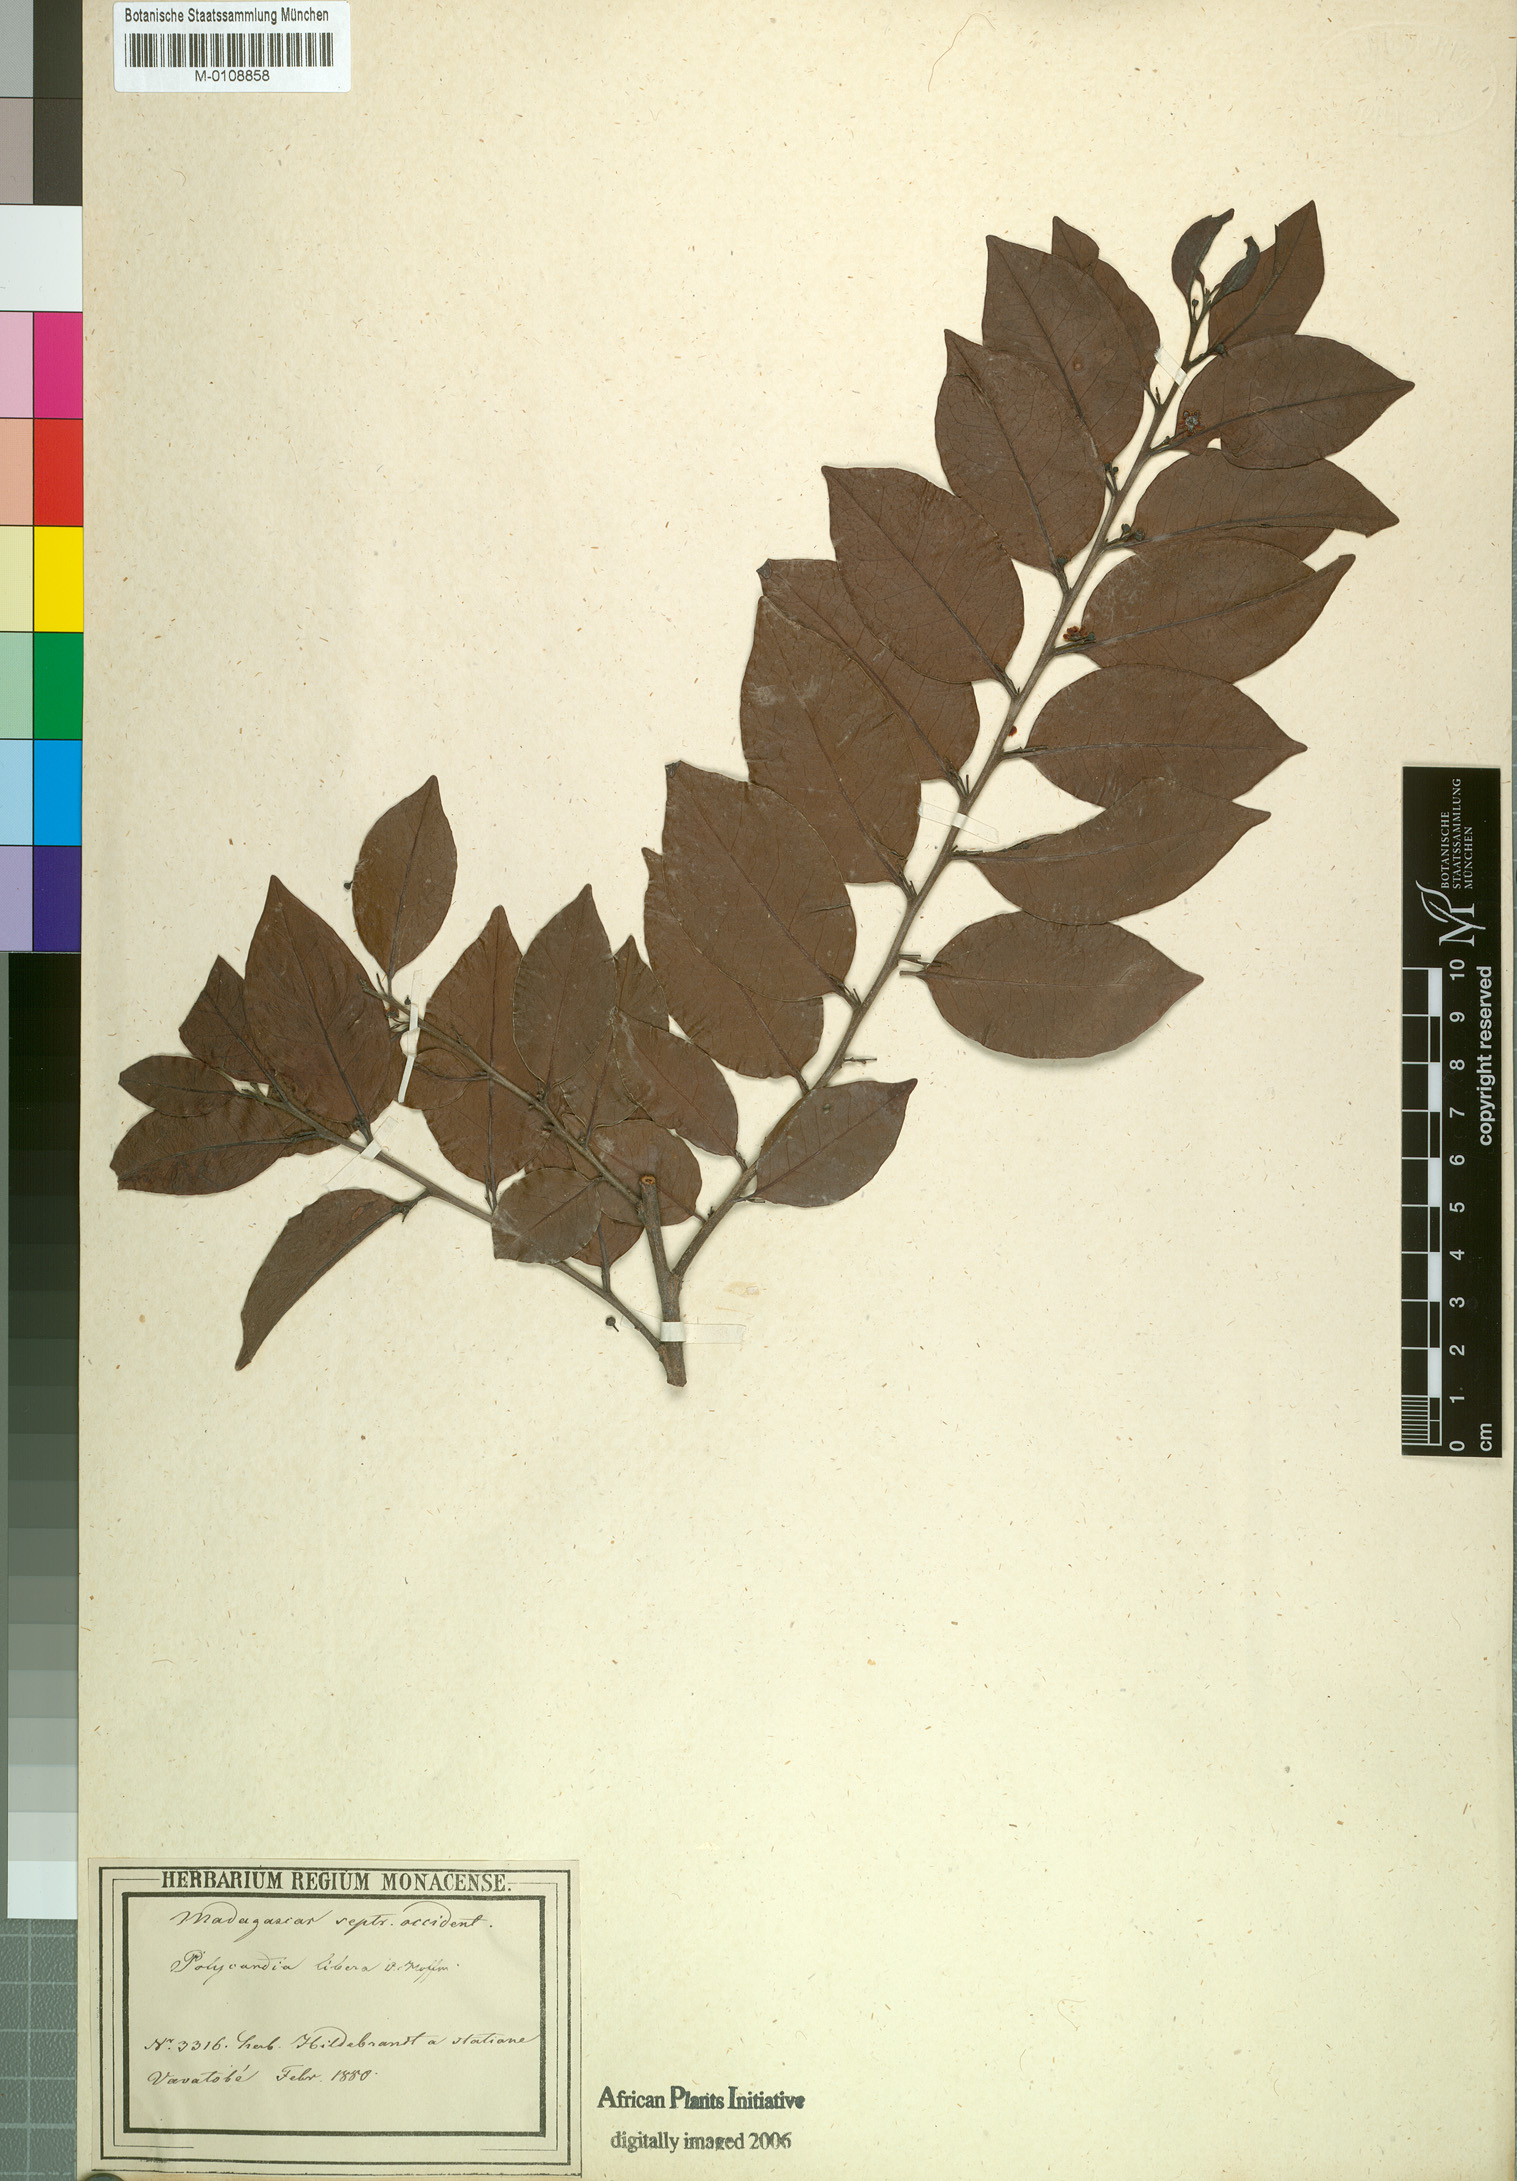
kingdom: Plantae
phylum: Tracheophyta
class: Magnoliopsida
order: Celastrales
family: Celastraceae
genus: Polycardia
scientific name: Polycardia libera
